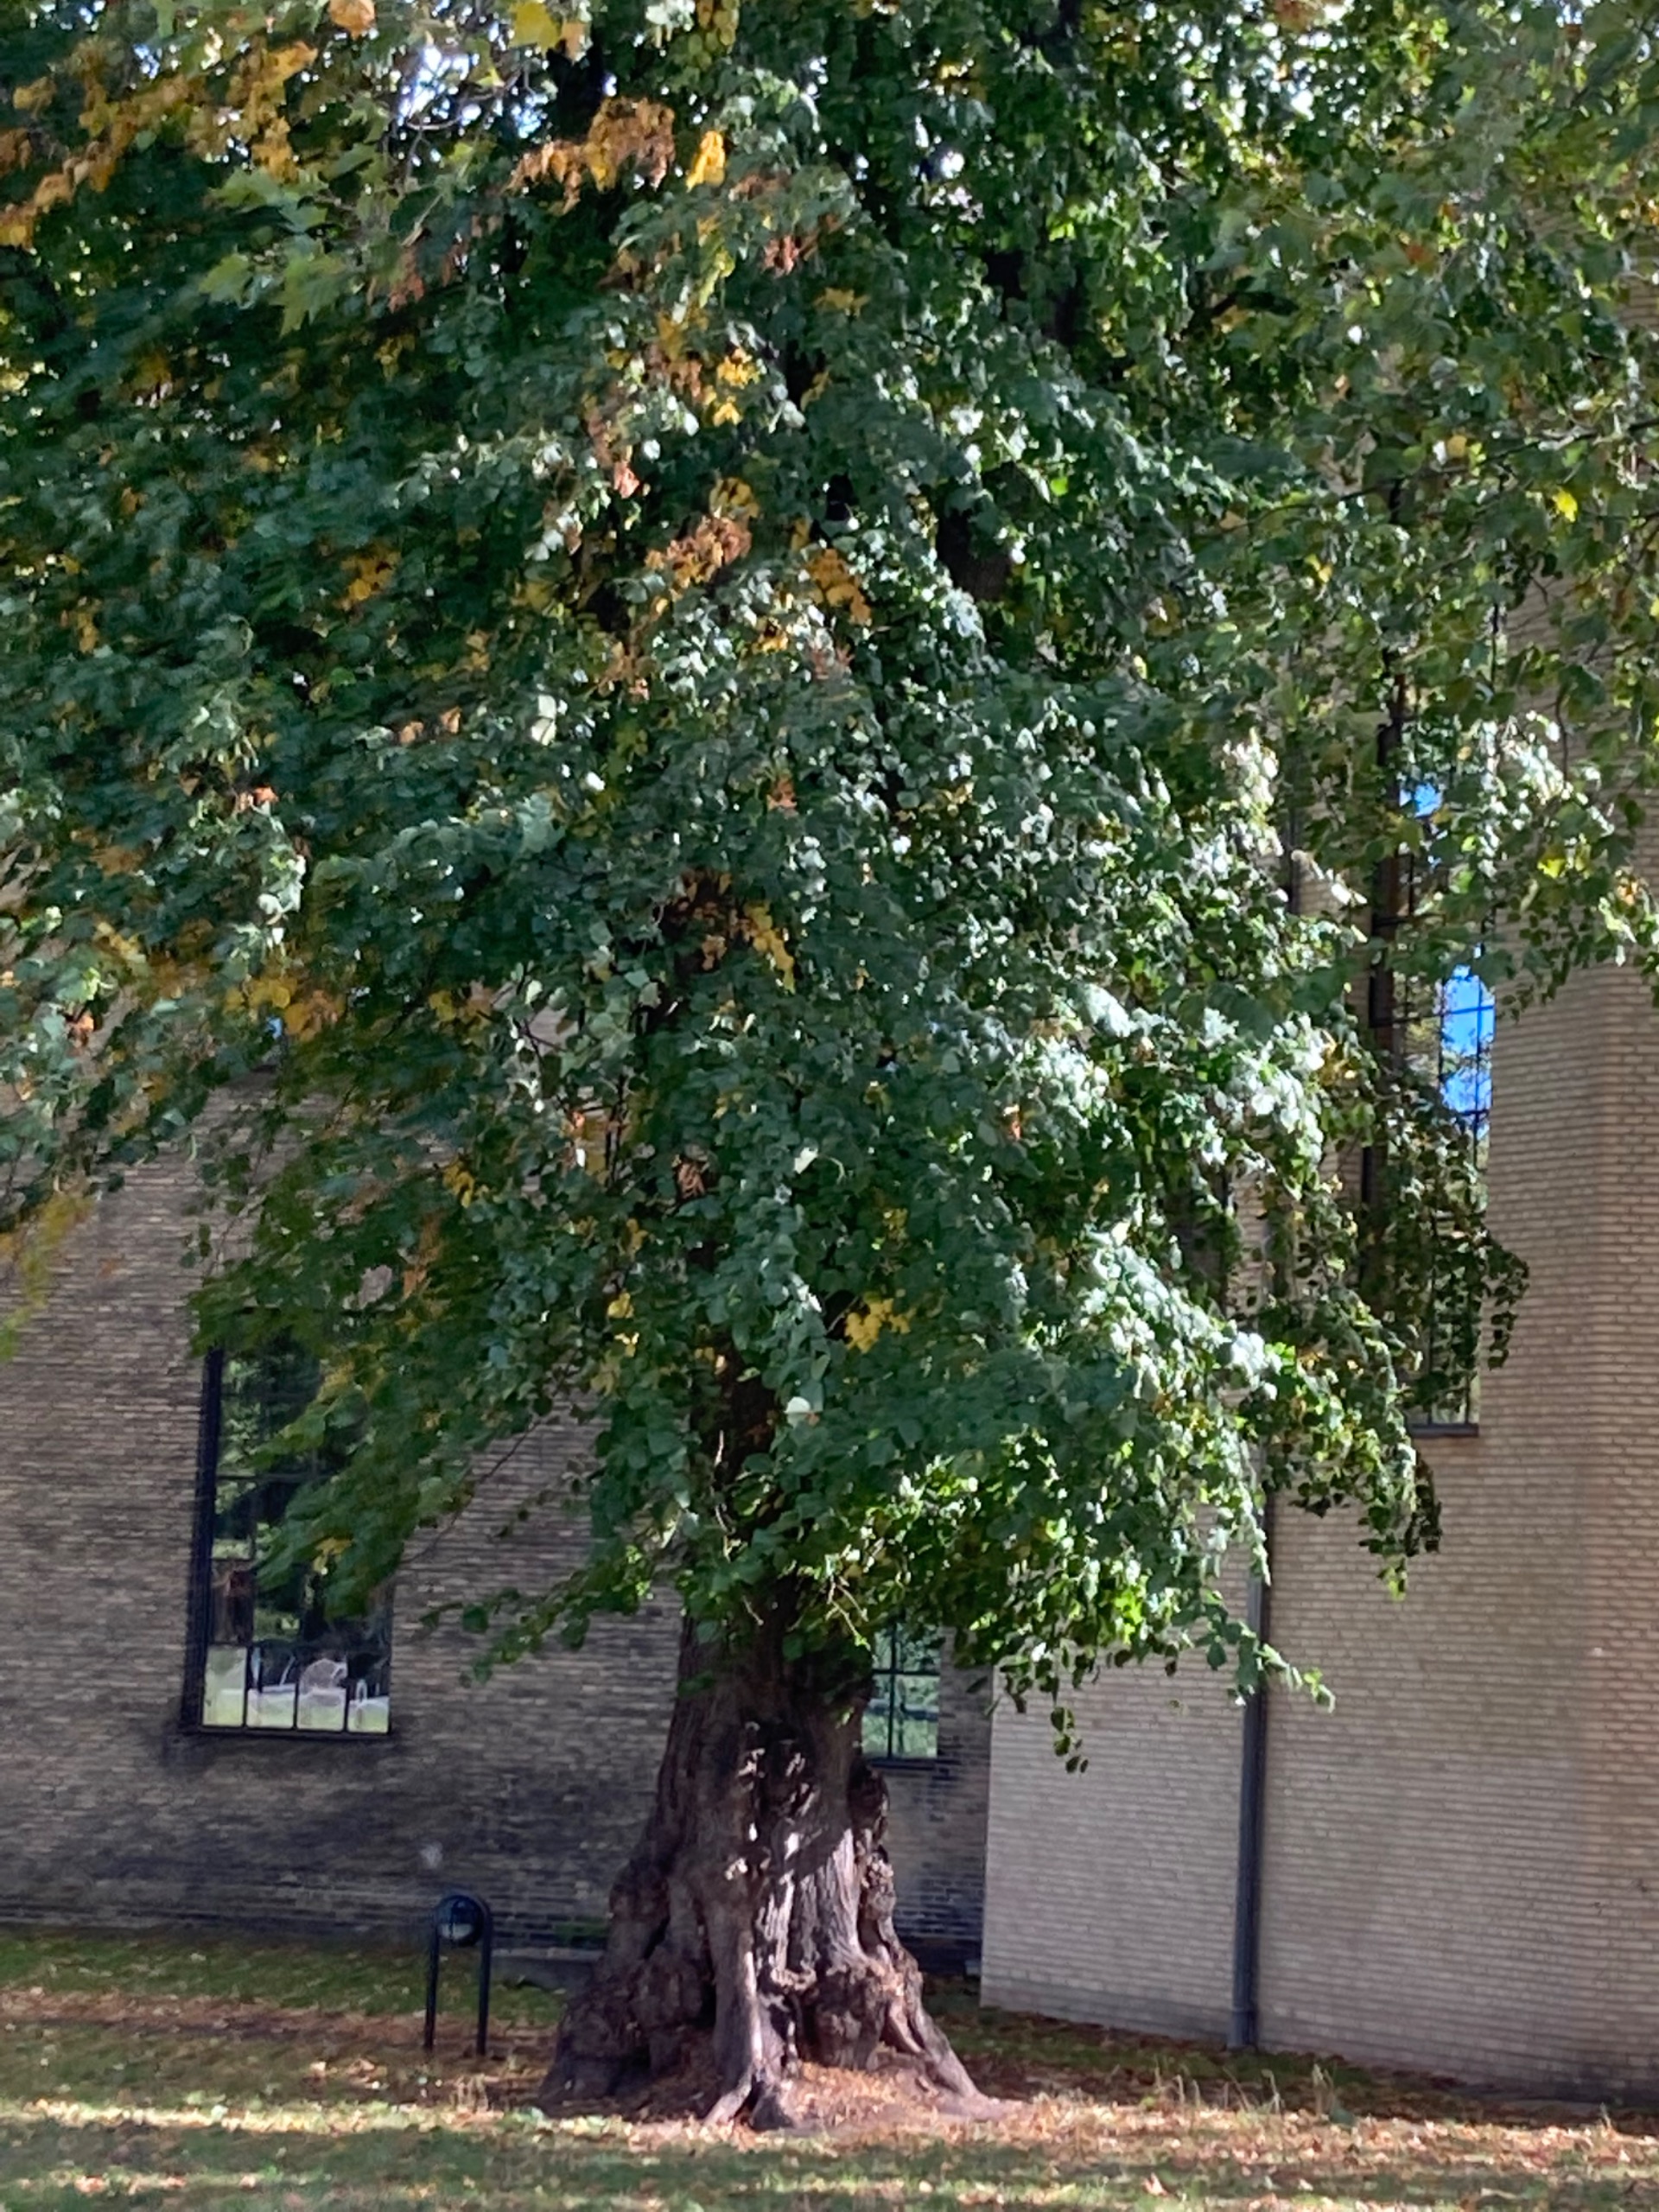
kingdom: Plantae
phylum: Tracheophyta
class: Magnoliopsida
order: Malvales
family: Malvaceae
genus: Tilia
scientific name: Tilia
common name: Lindeslægten
